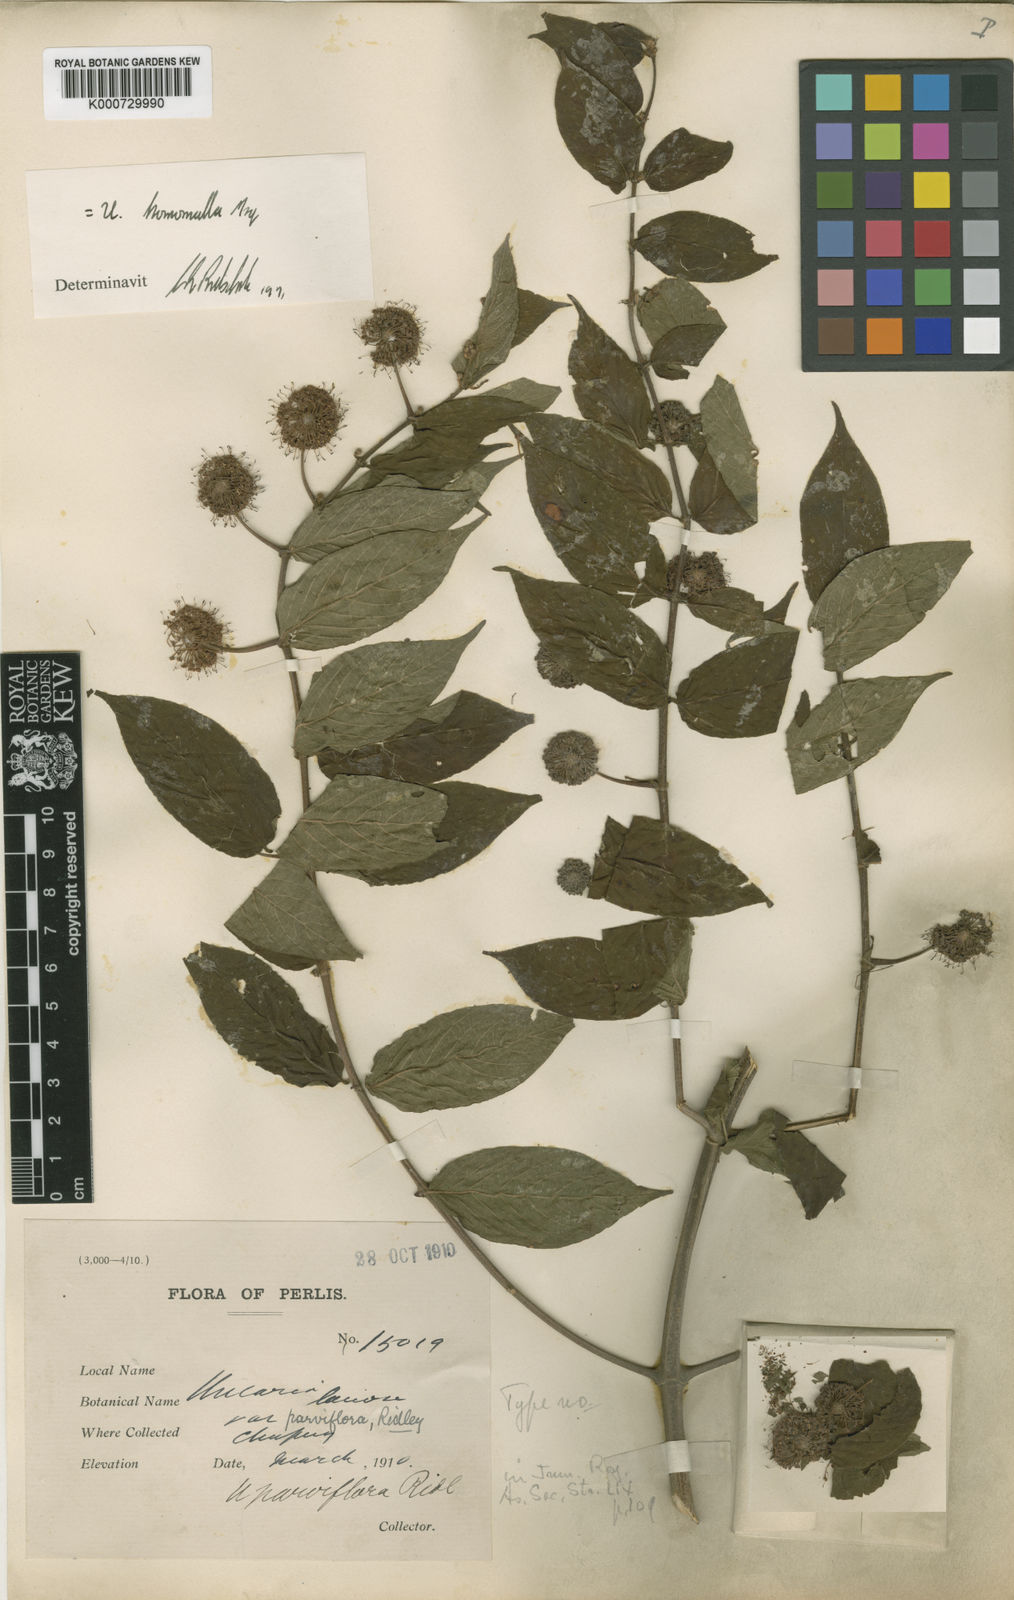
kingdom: Plantae
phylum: Tracheophyta
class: Magnoliopsida
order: Gentianales
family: Rubiaceae
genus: Uncaria
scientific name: Uncaria homomalla
